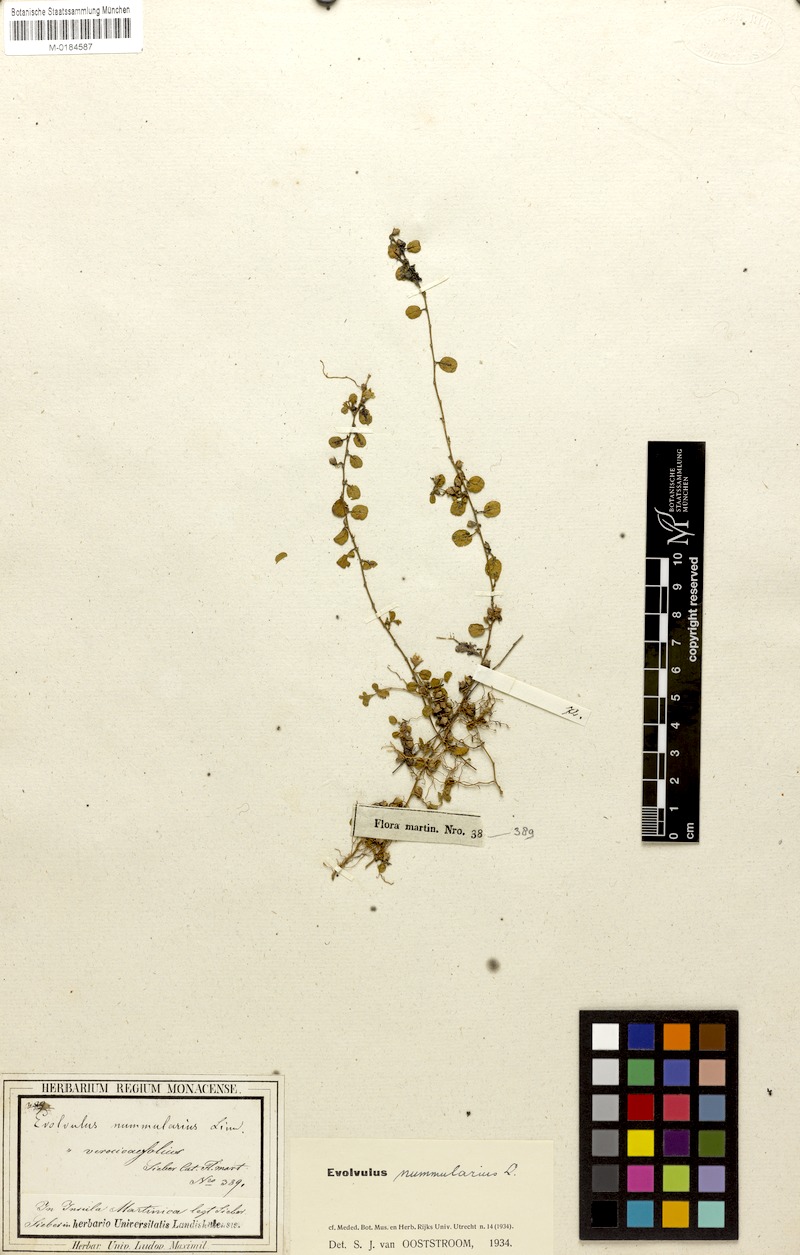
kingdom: Plantae
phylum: Tracheophyta
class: Magnoliopsida
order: Solanales
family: Convolvulaceae
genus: Evolvulus
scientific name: Evolvulus nummularius
